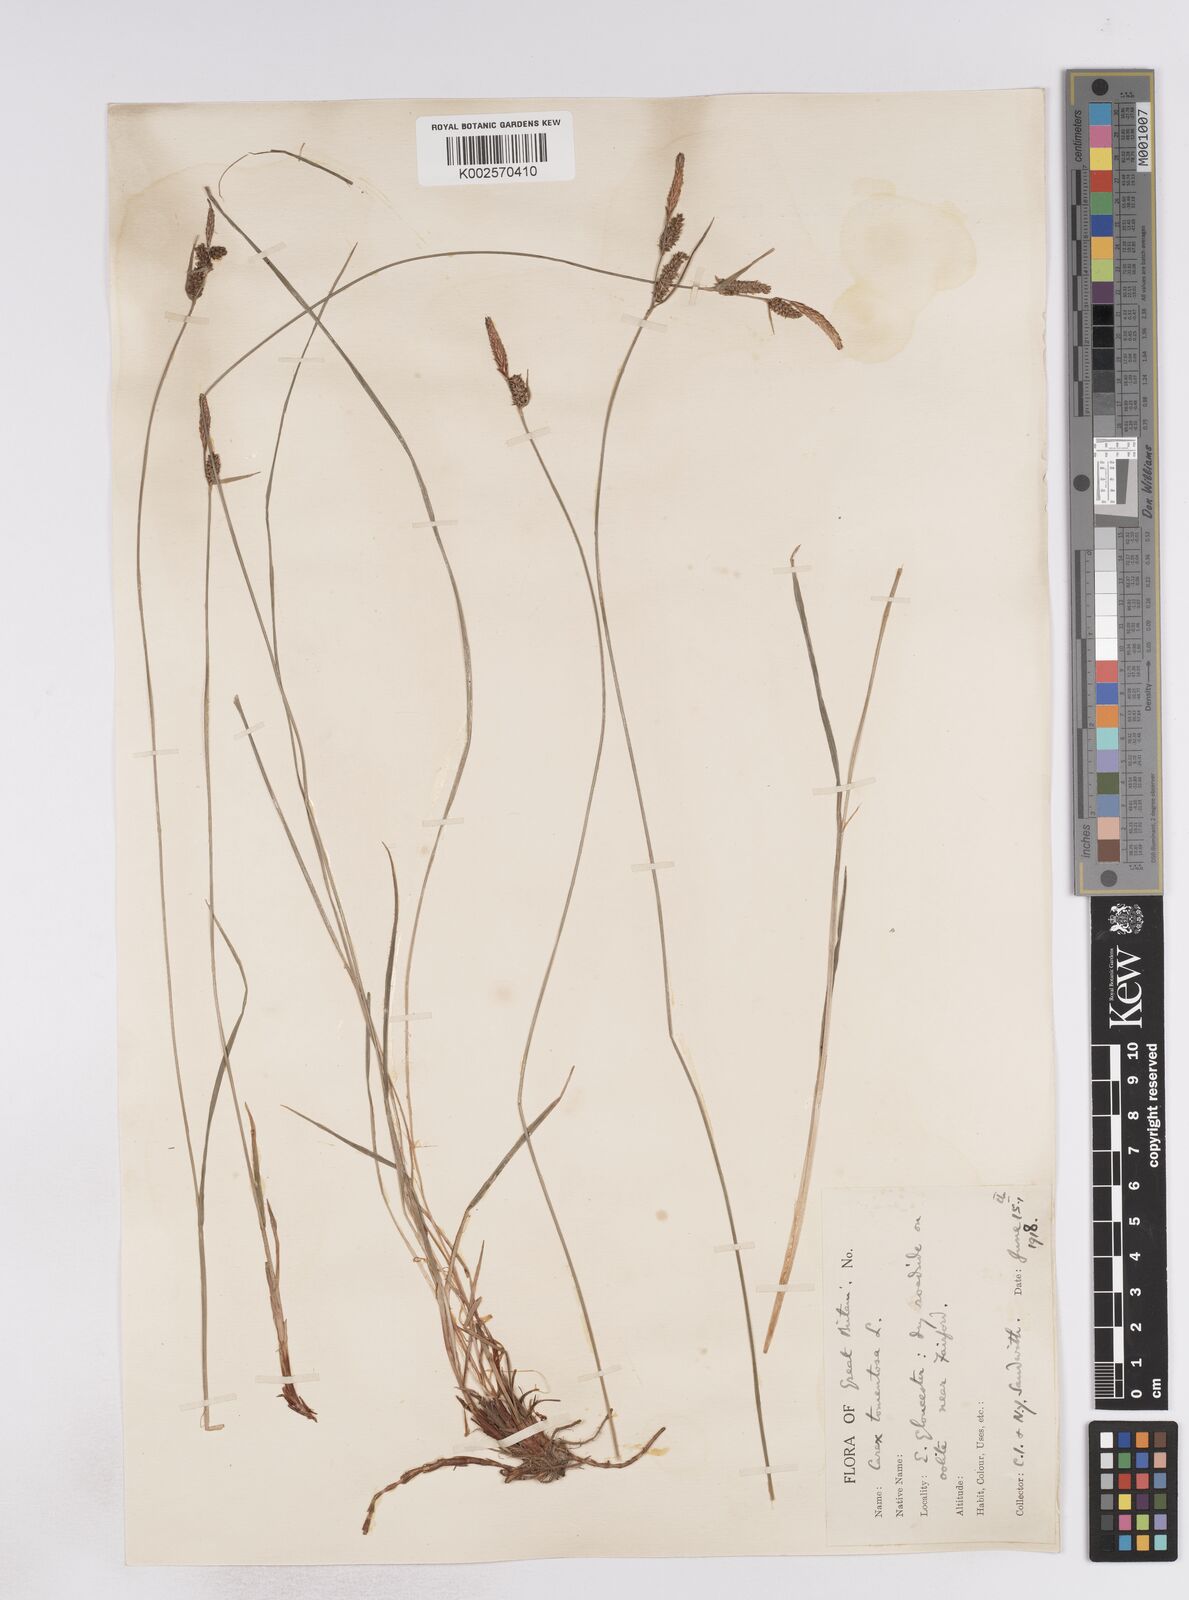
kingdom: Plantae
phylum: Tracheophyta
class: Liliopsida
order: Poales
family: Cyperaceae
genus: Carex
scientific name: Carex montana
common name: Soft-leaved sedge
